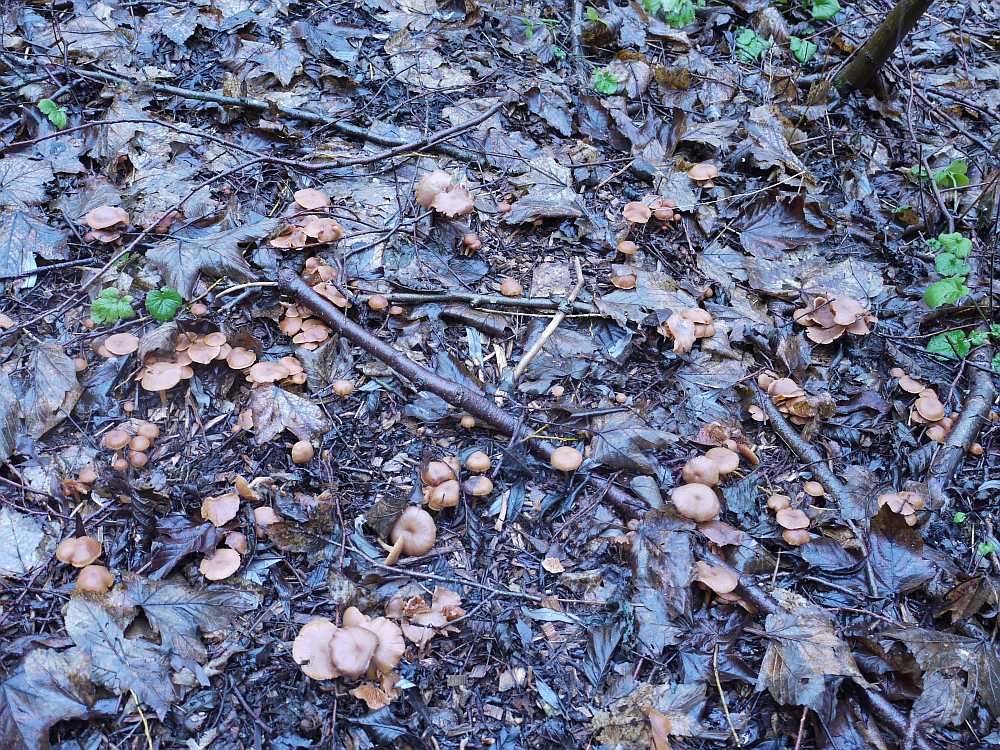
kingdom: Fungi
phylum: Basidiomycota
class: Agaricomycetes
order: Agaricales
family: Tubariaceae
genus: Tubaria
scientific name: Tubaria furfuracea
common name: kliddet fnughat
